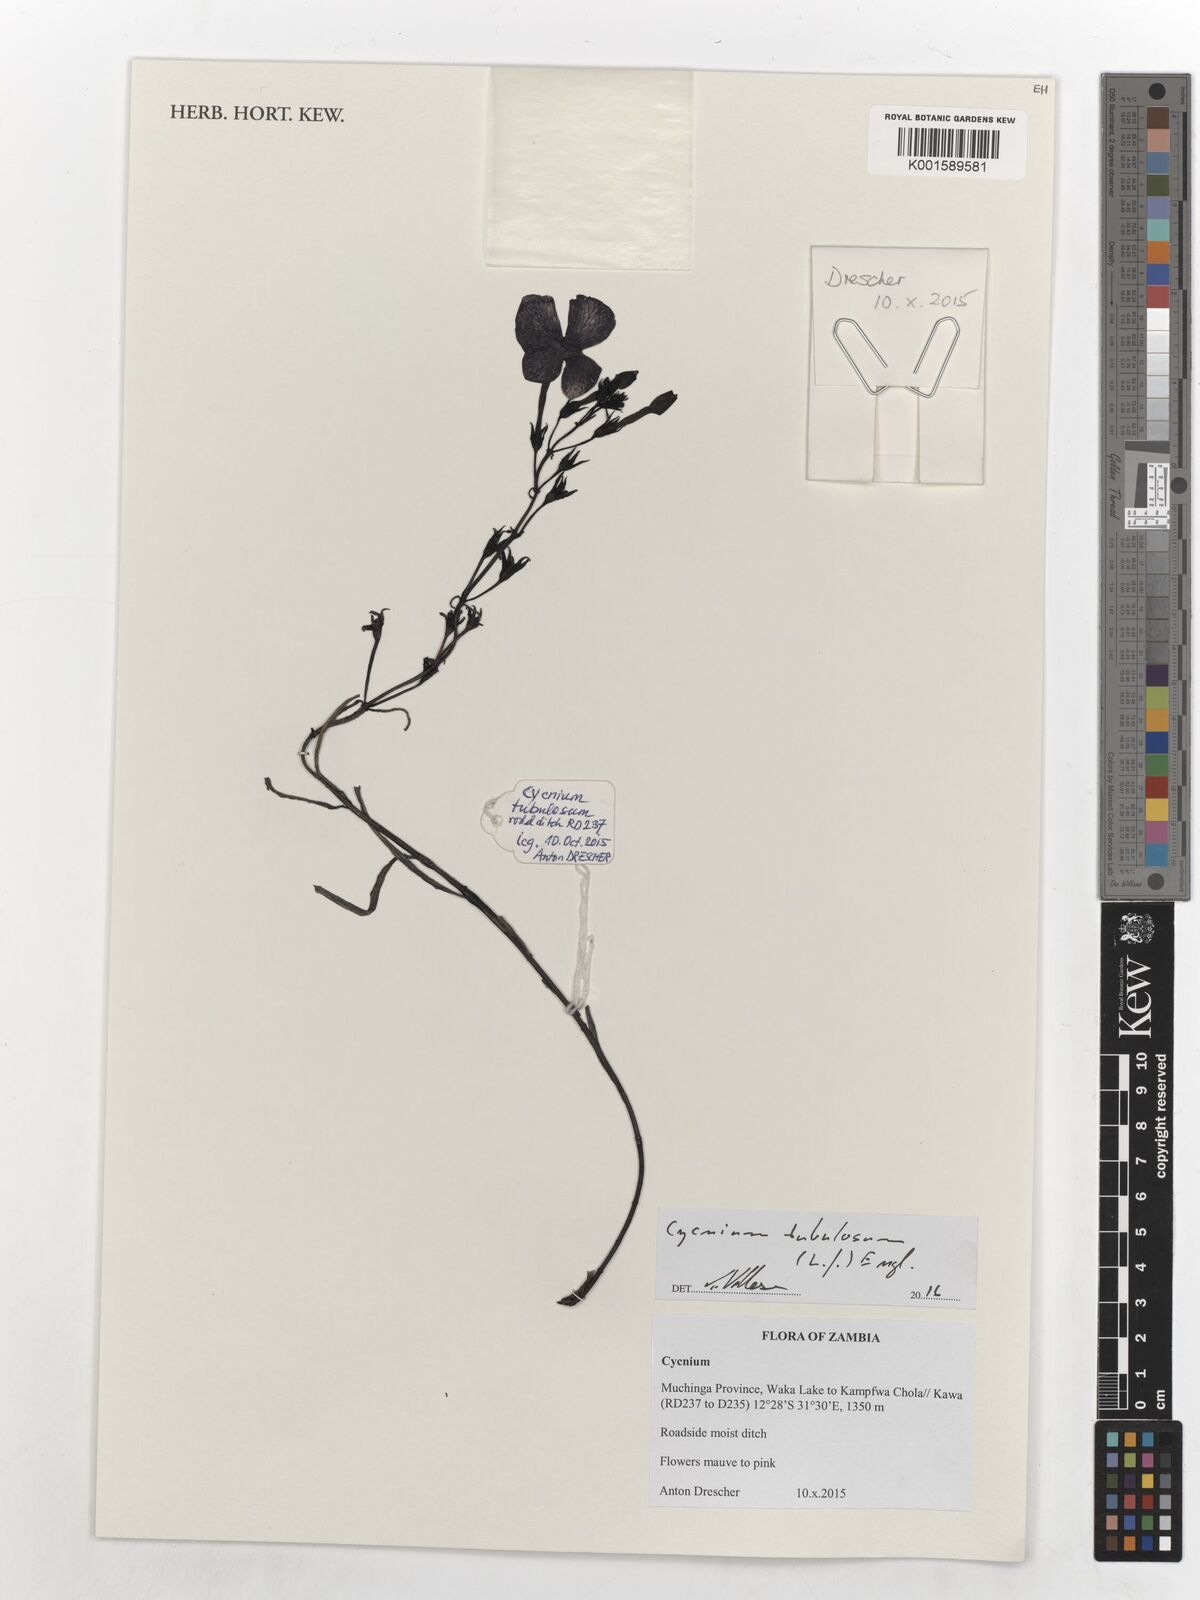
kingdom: Plantae
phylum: Tracheophyta
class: Magnoliopsida
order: Lamiales
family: Orobanchaceae
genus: Cycnium
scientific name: Cycnium tubulosum
